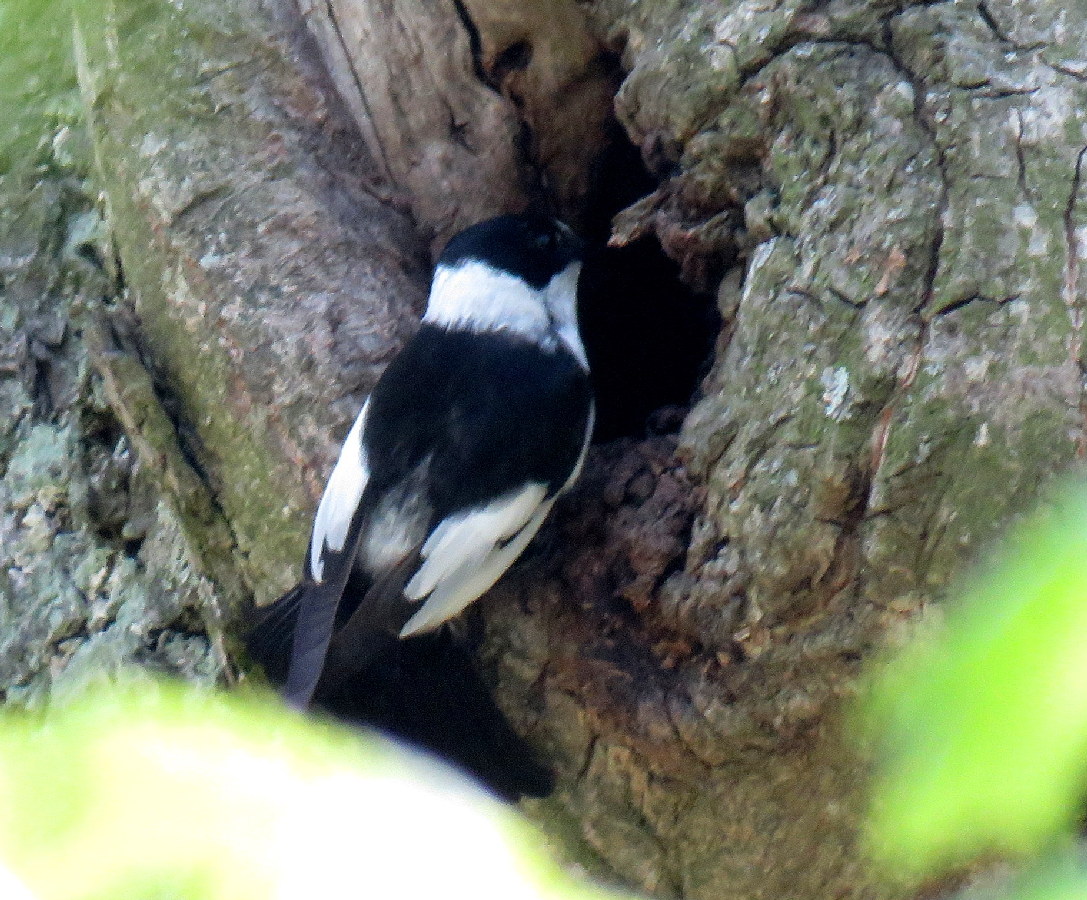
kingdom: Animalia
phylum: Chordata
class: Aves
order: Passeriformes
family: Muscicapidae
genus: Ficedula
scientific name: Ficedula albicollis
